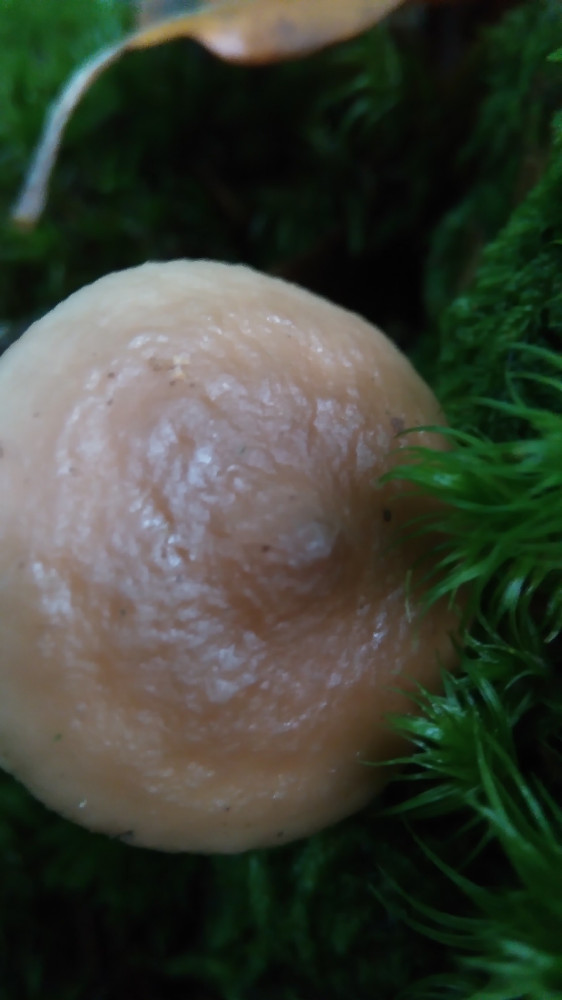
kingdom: Fungi
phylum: Basidiomycota
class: Agaricomycetes
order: Russulales
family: Russulaceae
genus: Lactarius
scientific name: Lactarius
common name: mælkehat
